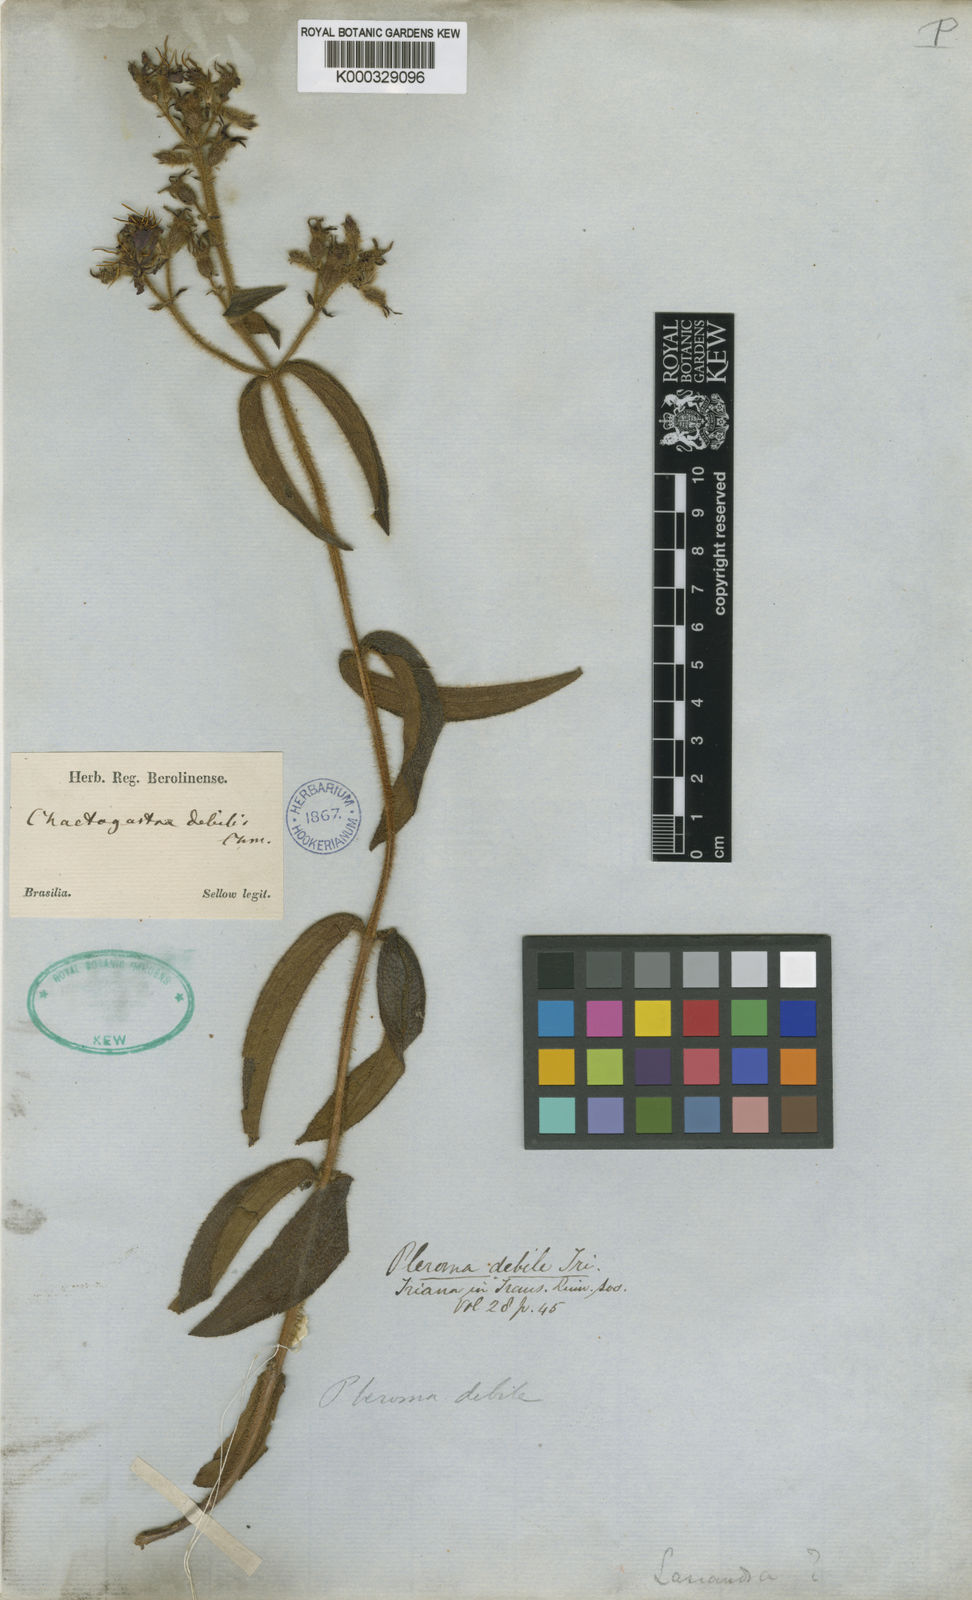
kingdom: Plantae
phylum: Tracheophyta
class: Magnoliopsida
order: Myrtales
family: Melastomataceae
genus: Chaetogastra
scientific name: Chaetogastra debilis
